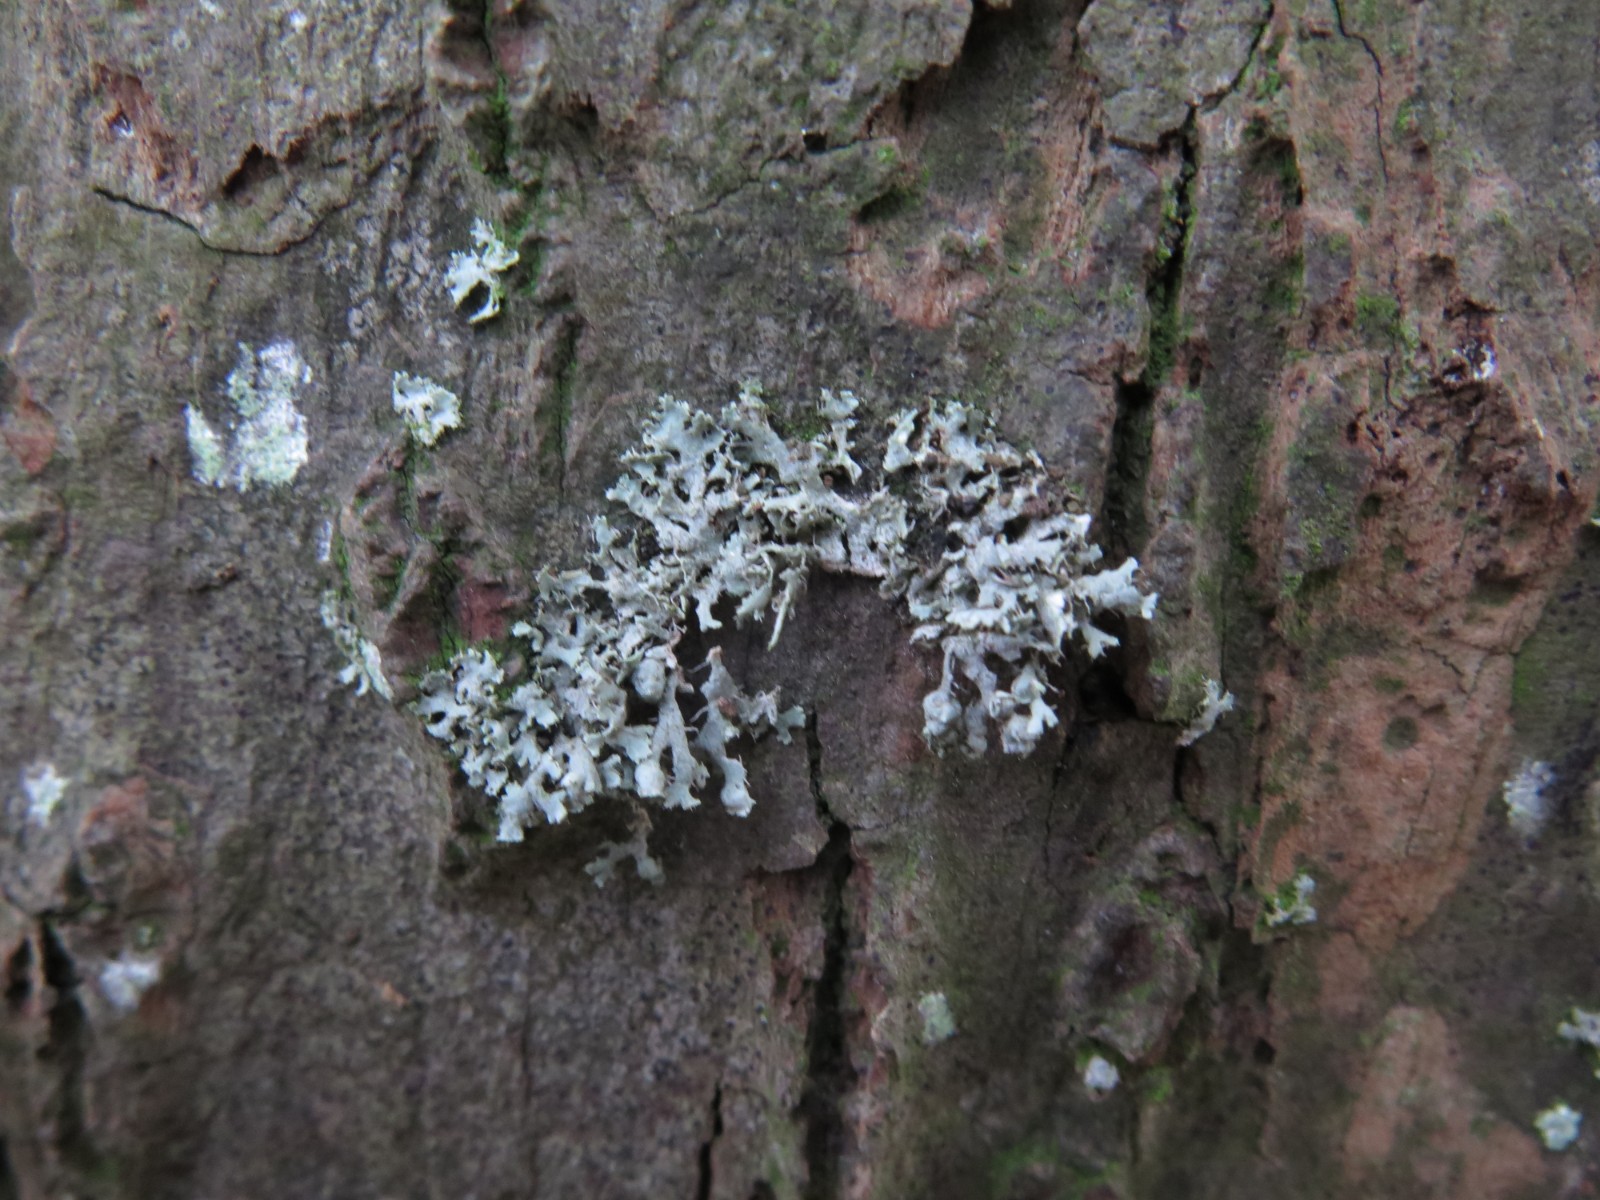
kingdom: Fungi
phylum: Ascomycota
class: Lecanoromycetes
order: Caliciales
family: Physciaceae
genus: Physcia
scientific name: Physcia adscendens
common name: hætte-rosetlav
